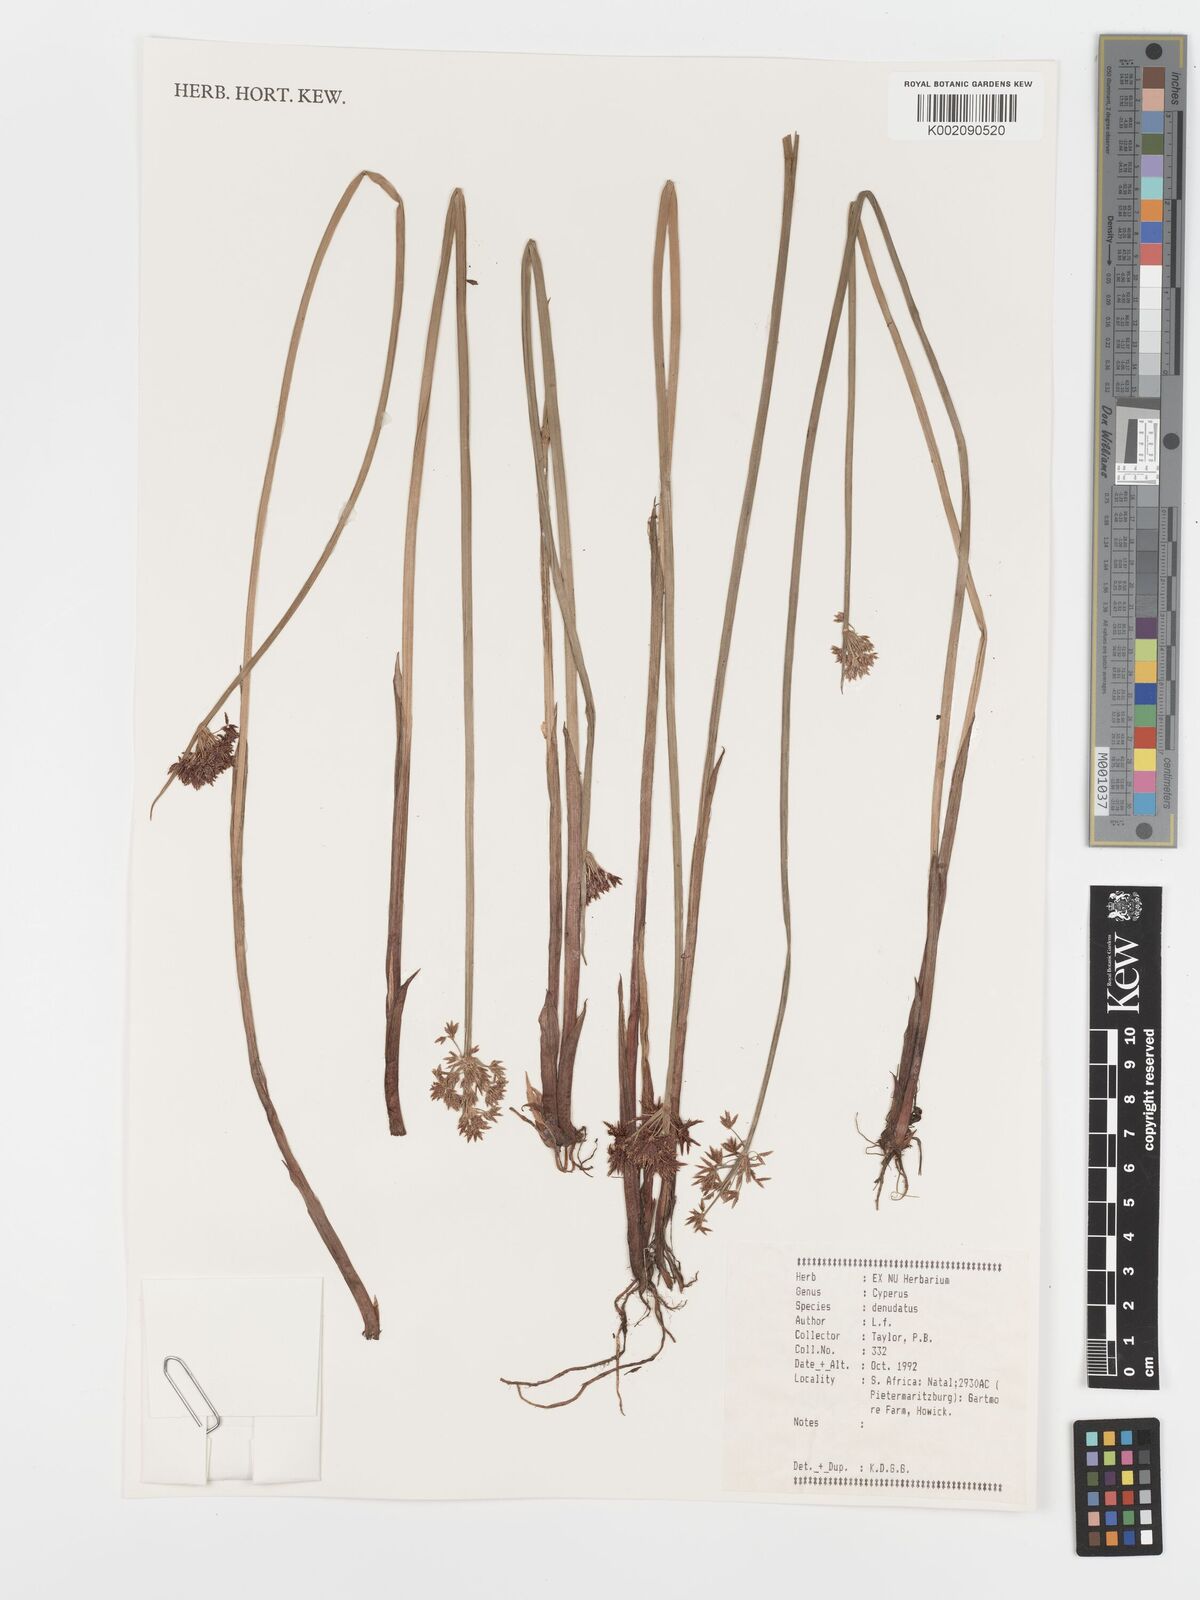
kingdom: Plantae
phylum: Tracheophyta
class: Liliopsida
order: Poales
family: Cyperaceae
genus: Cyperus
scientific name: Cyperus sphaerospermus
